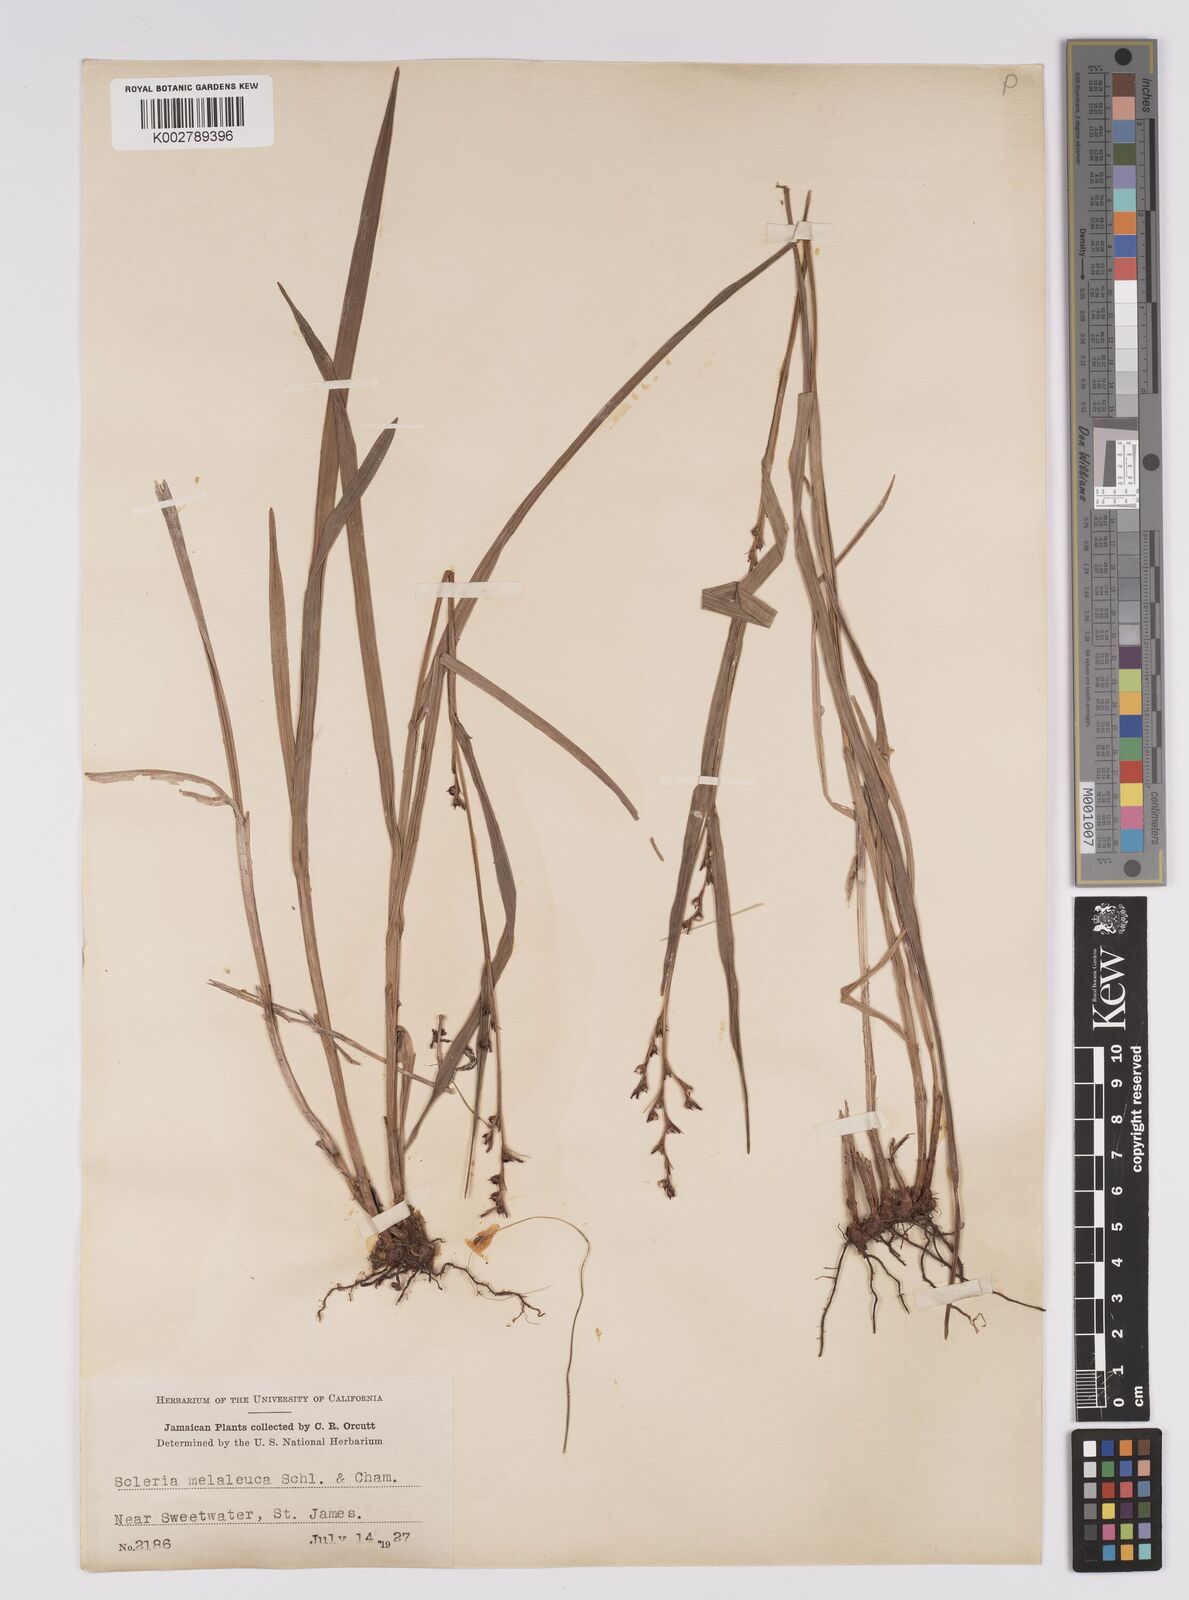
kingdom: Plantae
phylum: Tracheophyta
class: Liliopsida
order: Poales
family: Cyperaceae
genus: Scleria
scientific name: Scleria gaertneri
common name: Cortadera blanca
